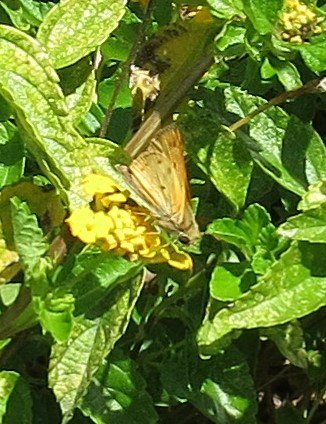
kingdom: Animalia
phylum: Arthropoda
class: Insecta
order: Lepidoptera
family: Hesperiidae
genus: Hylephila
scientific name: Hylephila phyleus
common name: Fiery Skipper
